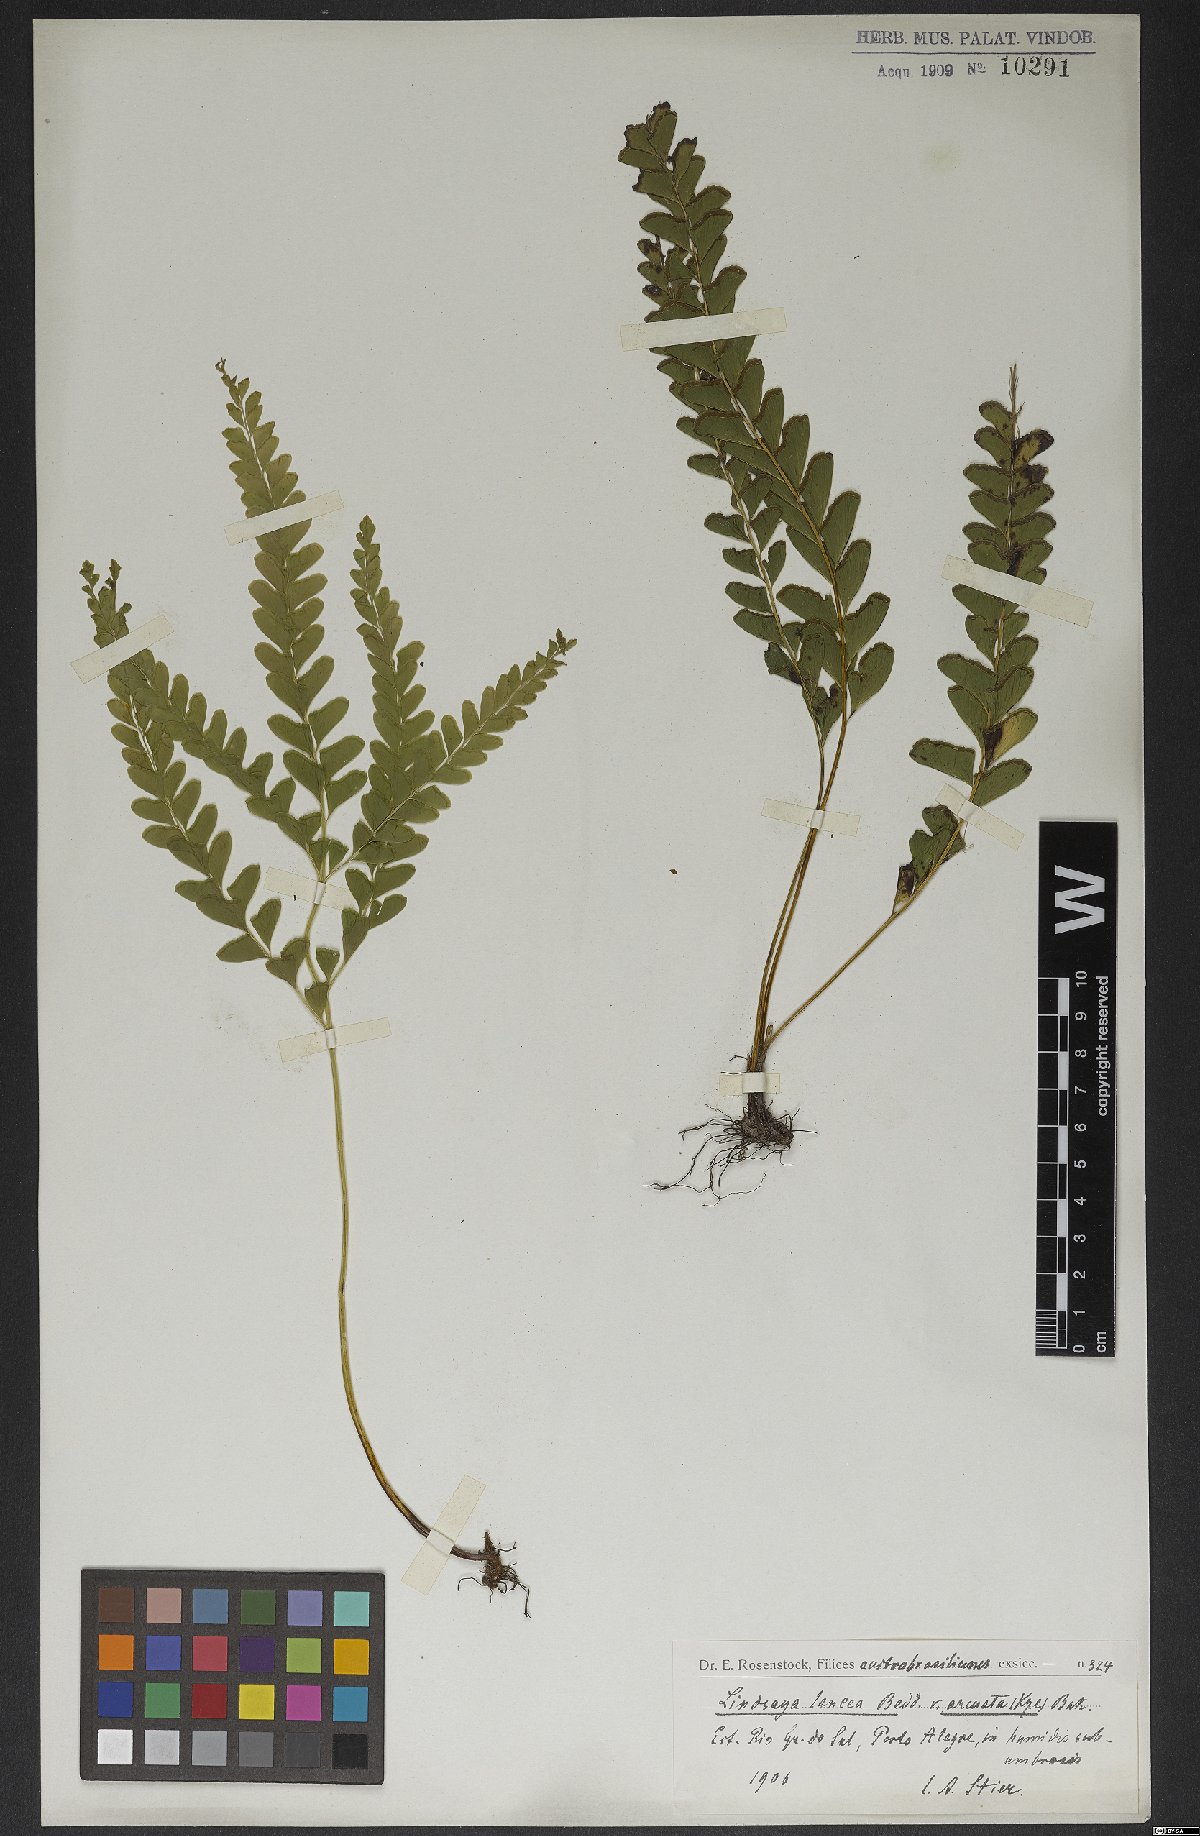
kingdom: Plantae
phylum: Tracheophyta
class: Polypodiopsida
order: Polypodiales
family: Lindsaeaceae
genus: Lindsaea
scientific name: Lindsaea arcuata
